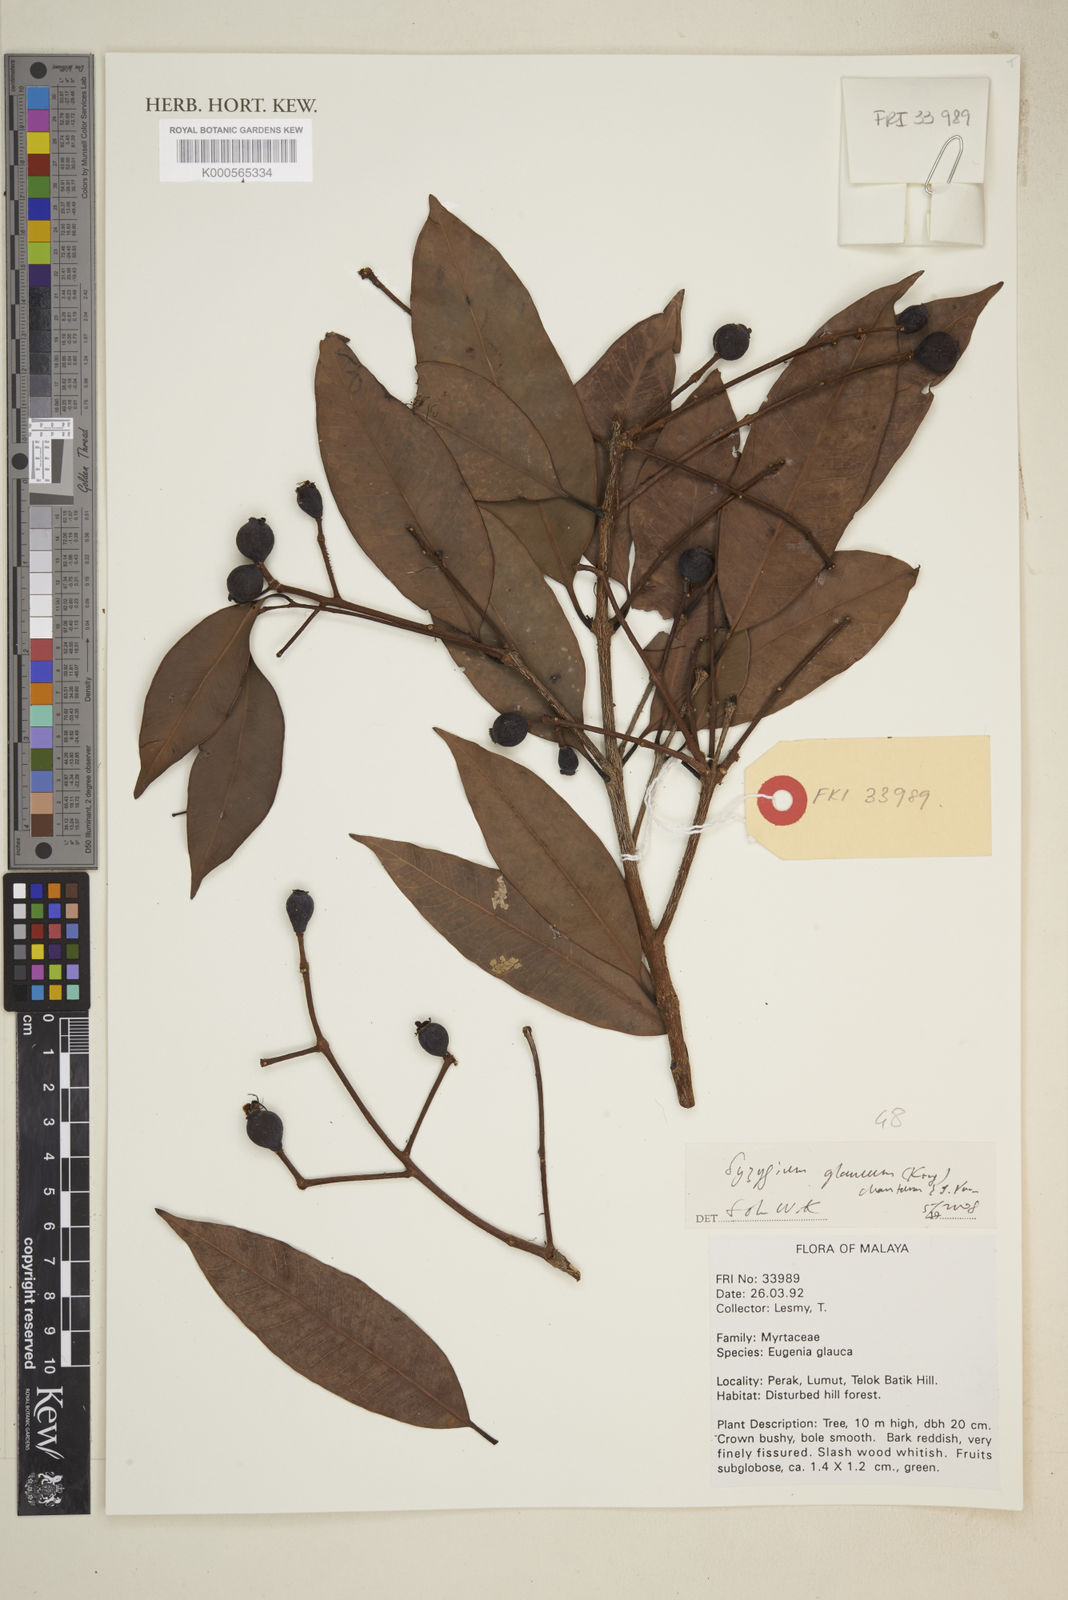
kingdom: Plantae
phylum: Tracheophyta
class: Magnoliopsida
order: Myrtales
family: Myrtaceae
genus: Syzygium
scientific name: Syzygium glaucum
